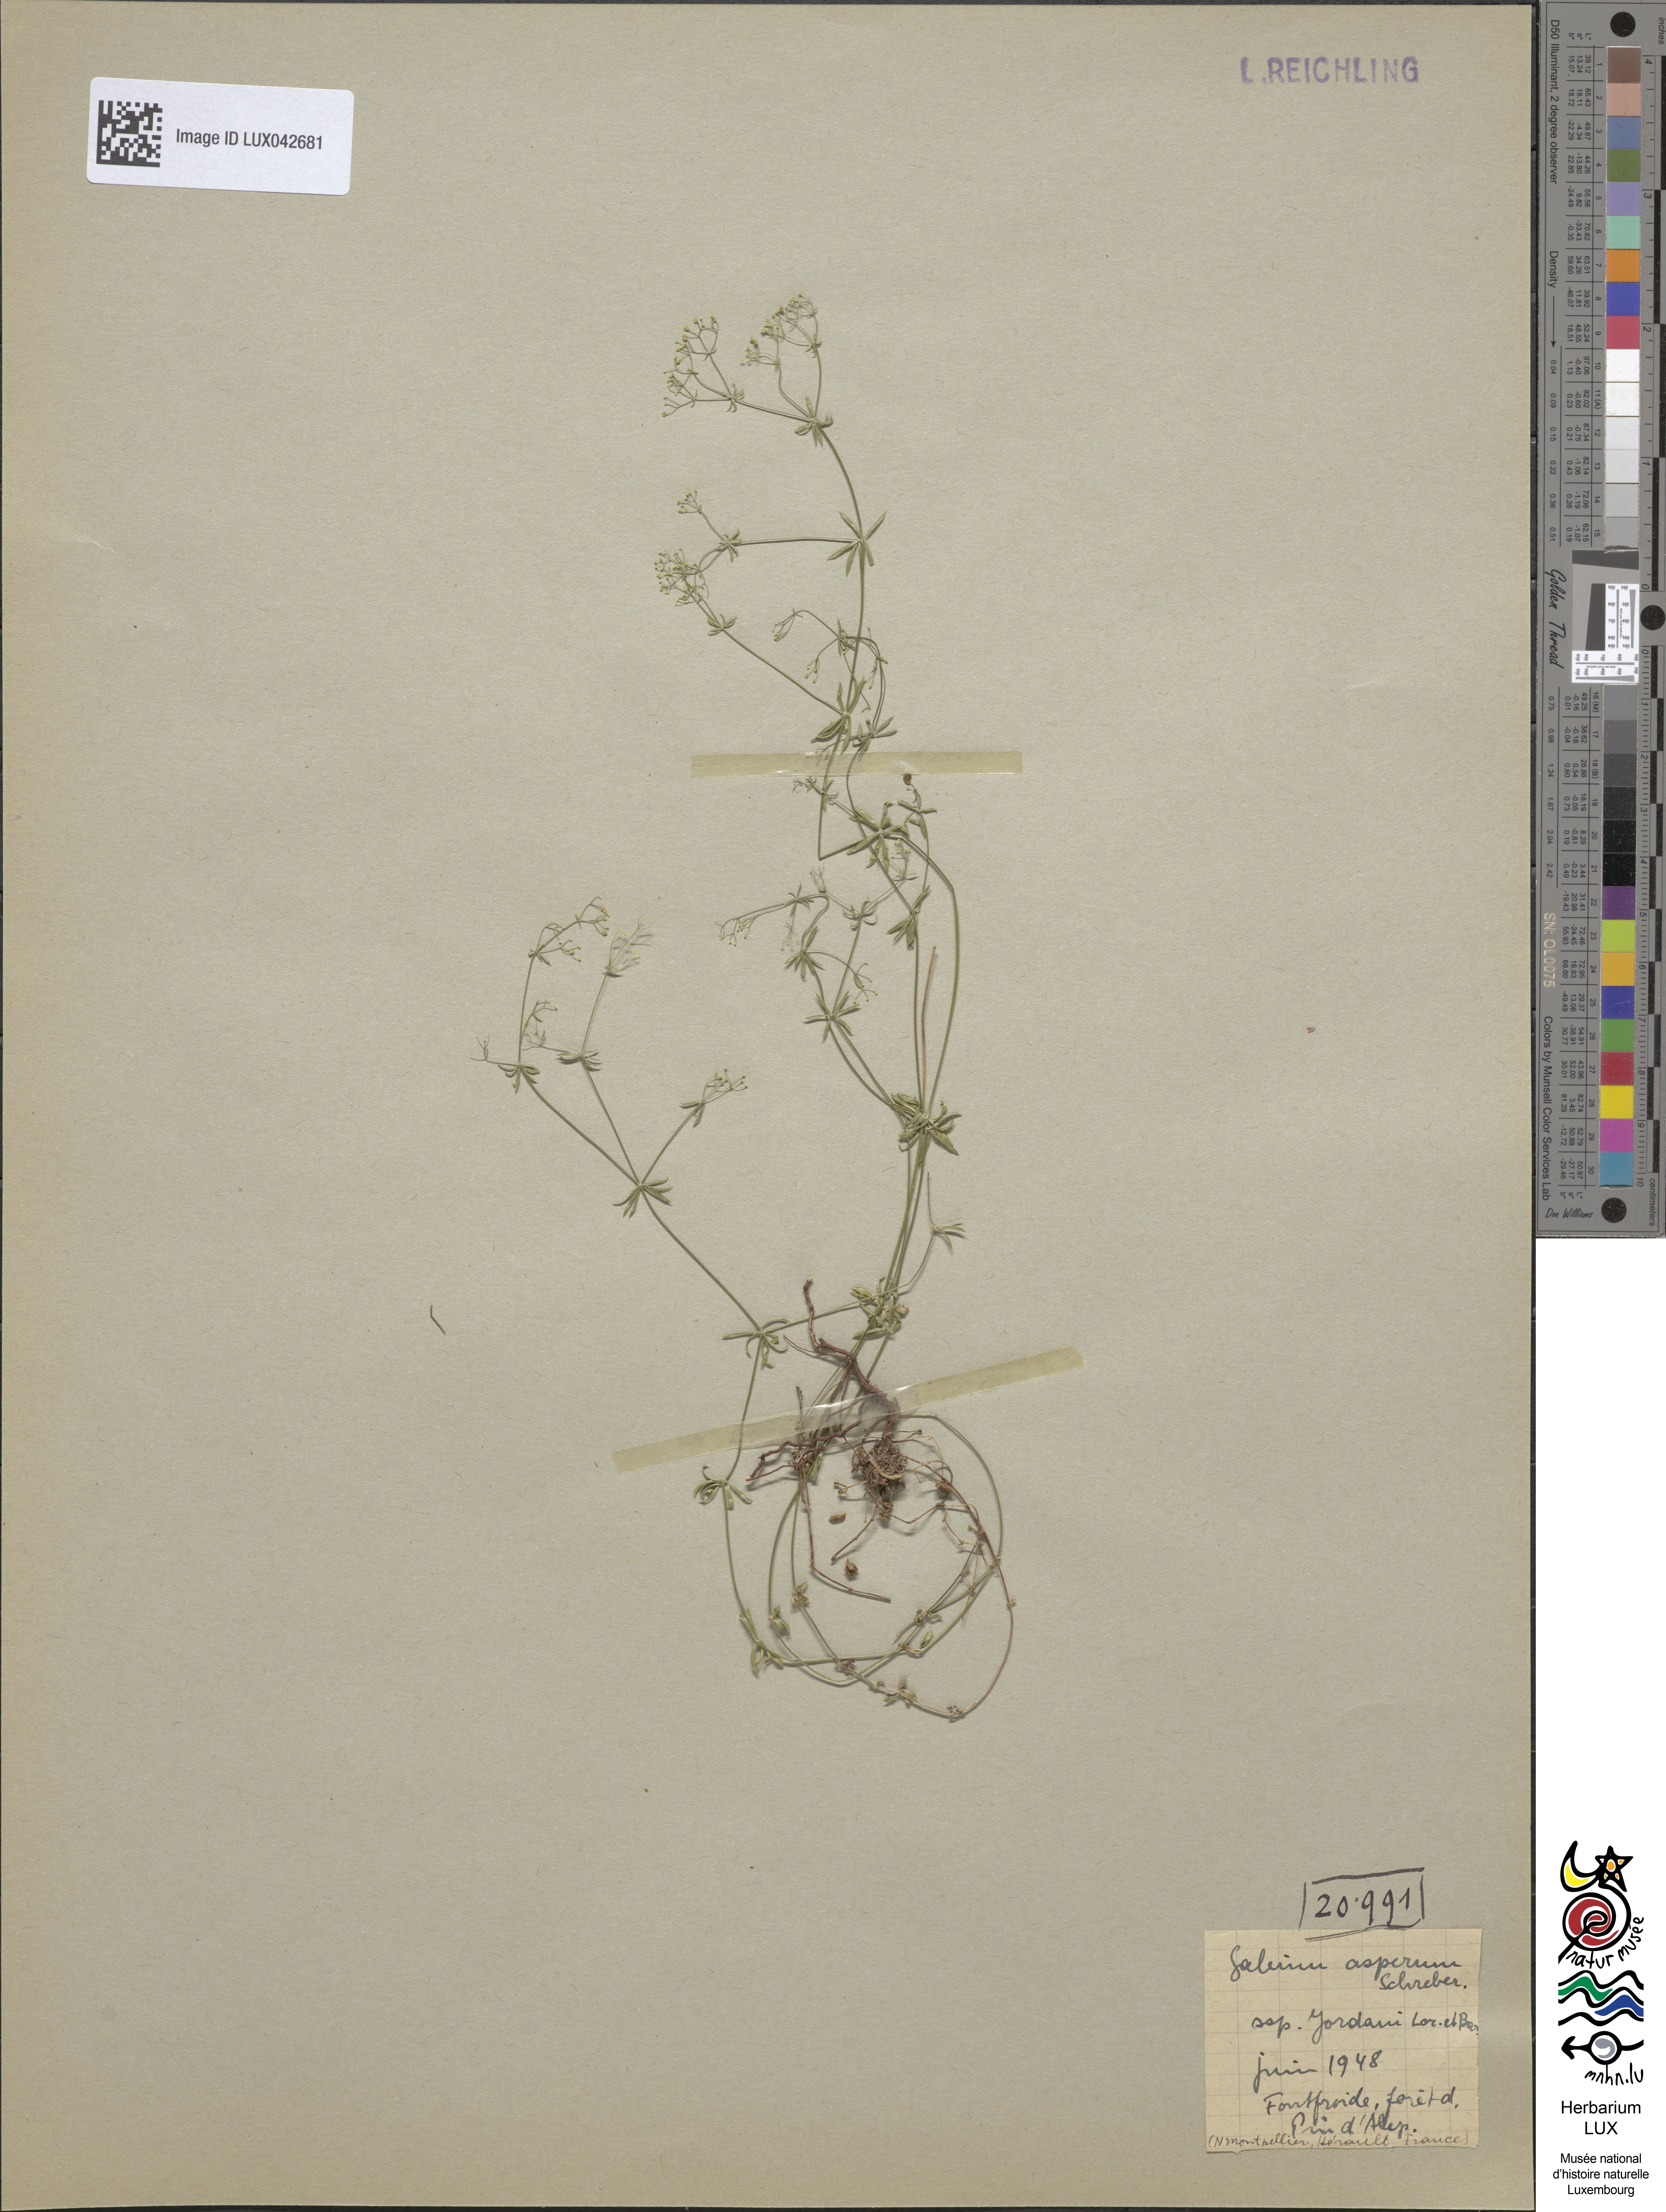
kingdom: Plantae
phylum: Tracheophyta
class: Magnoliopsida
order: Gentianales
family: Rubiaceae
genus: Galium
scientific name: Galium timeroyi
